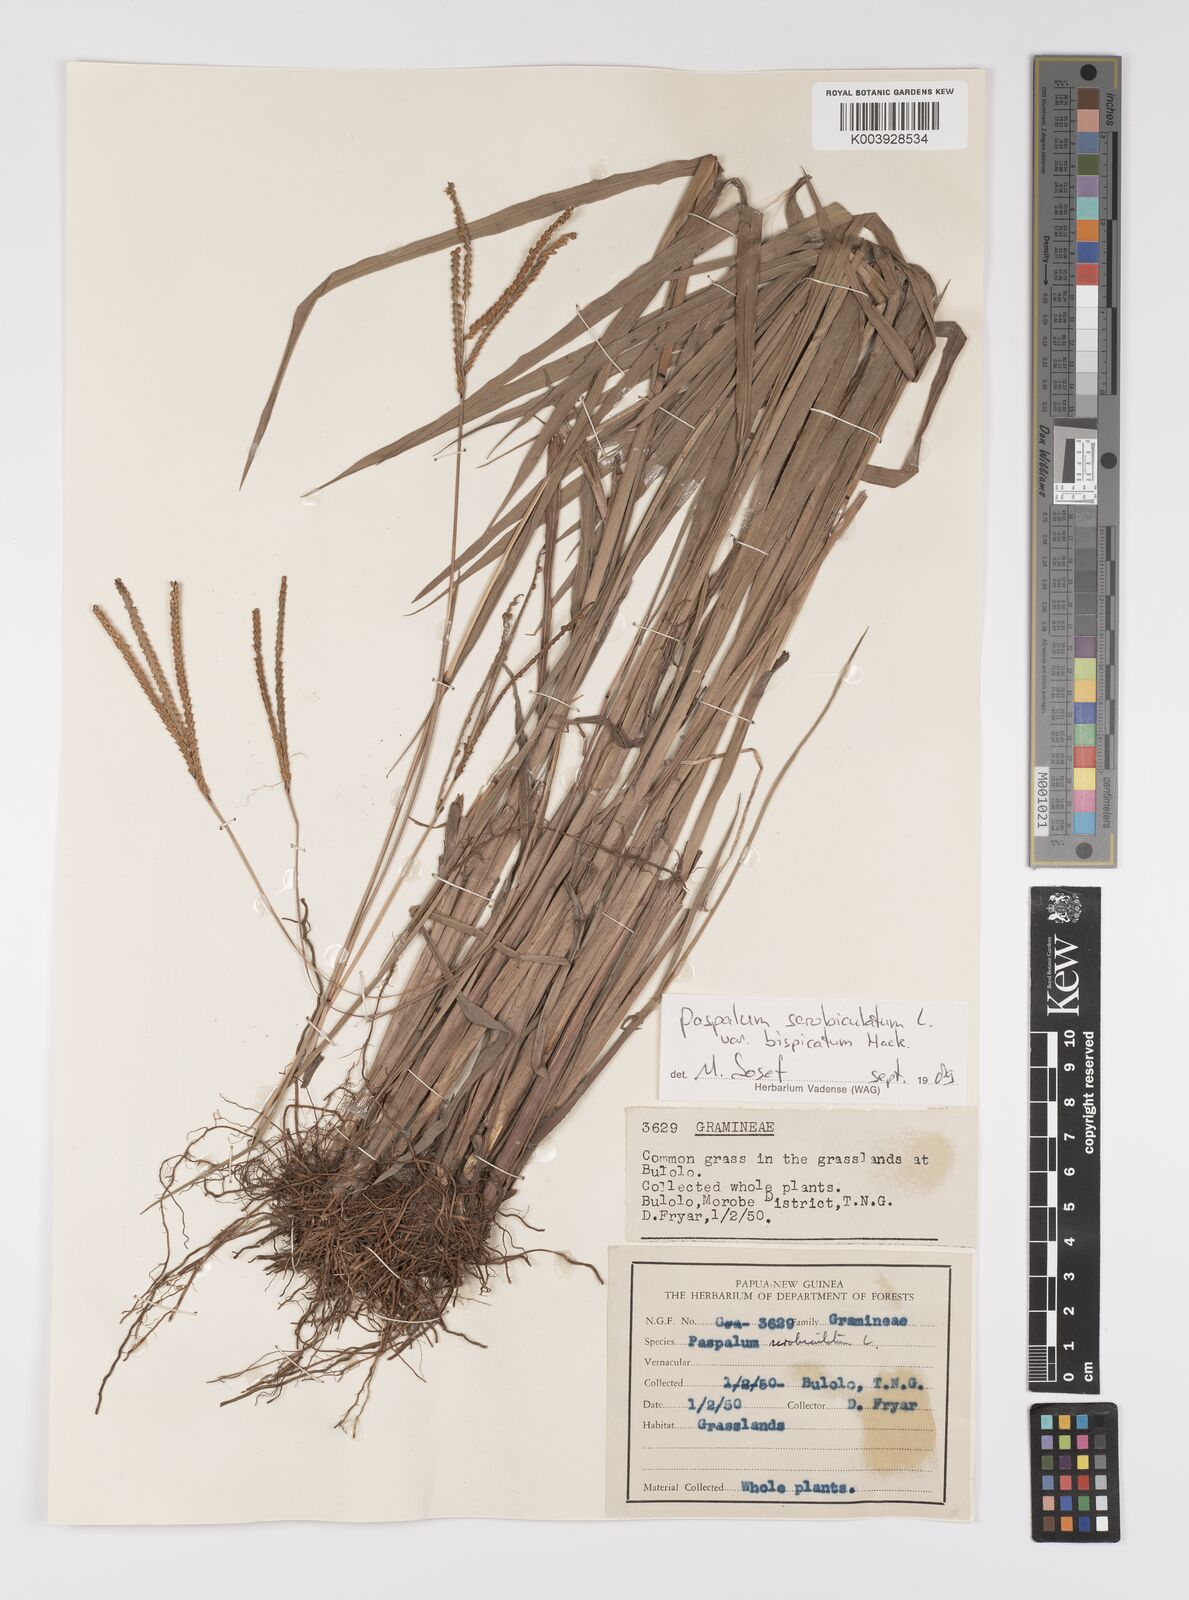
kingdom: Plantae
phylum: Tracheophyta
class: Liliopsida
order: Poales
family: Poaceae
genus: Paspalum
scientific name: Paspalum scrobiculatum
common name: Kodo millet
